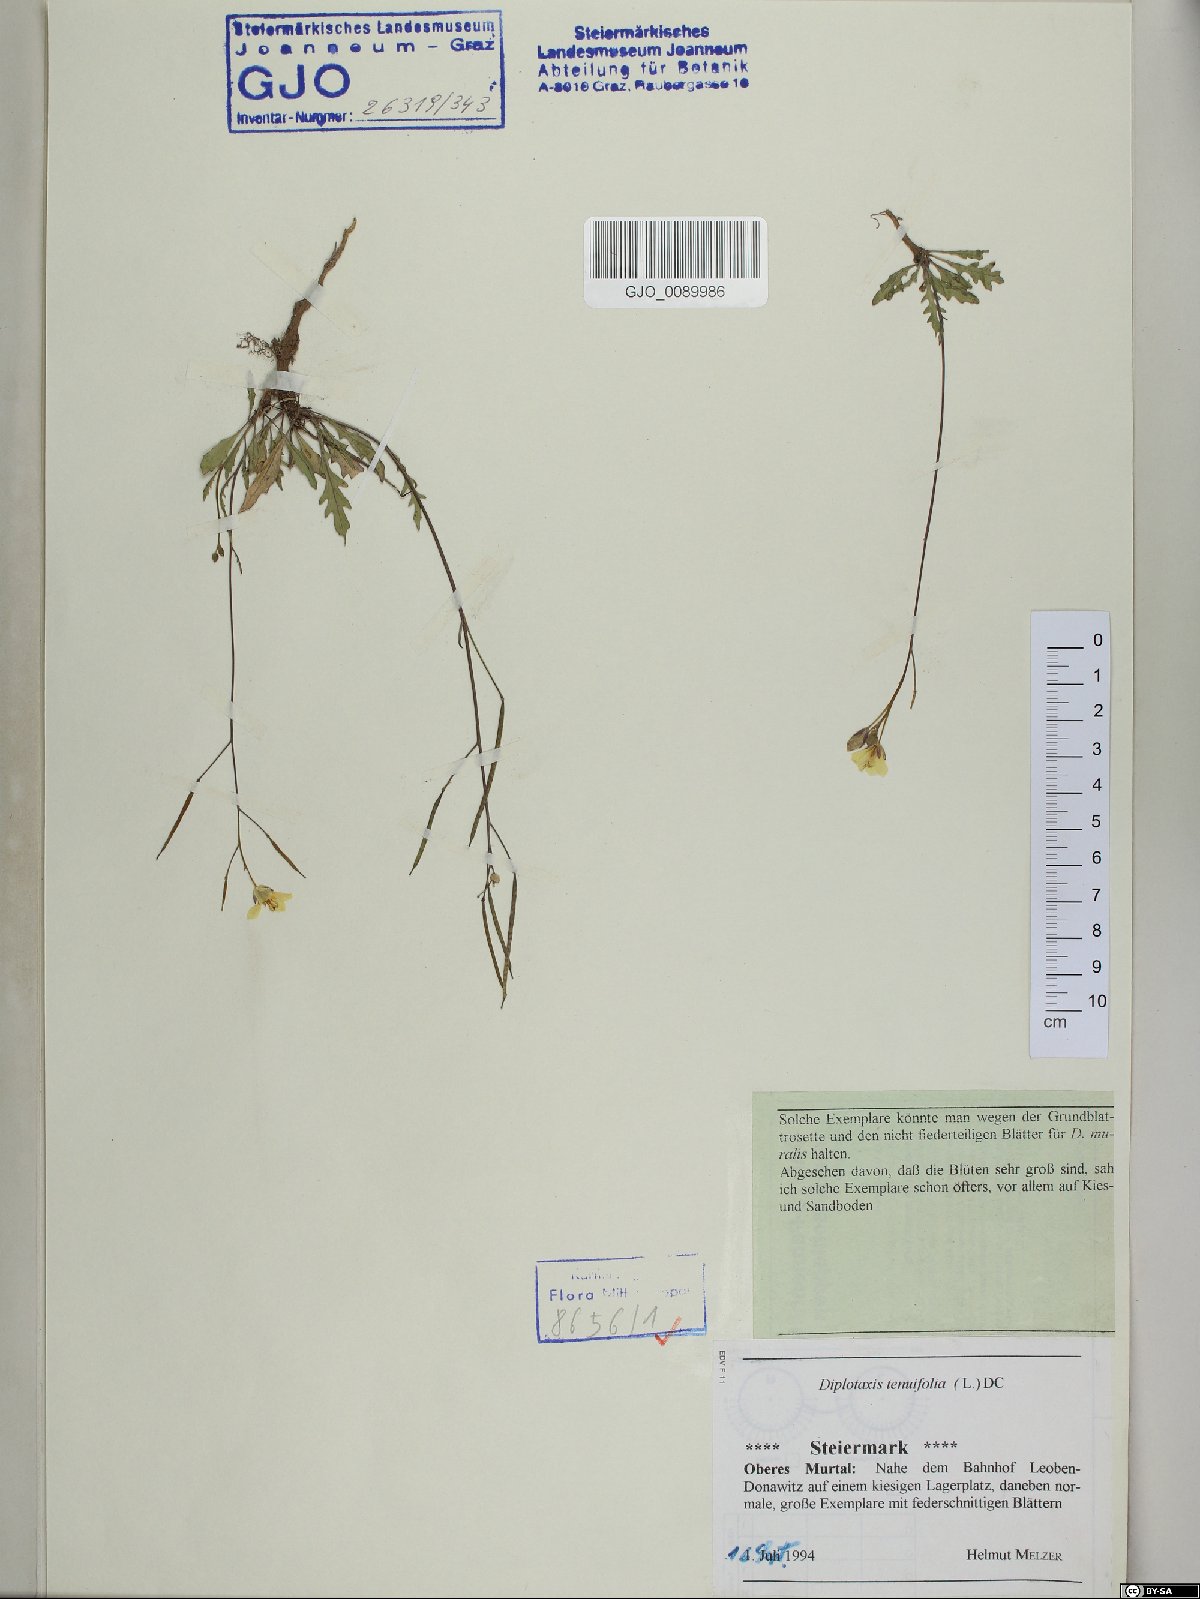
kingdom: Plantae
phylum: Tracheophyta
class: Magnoliopsida
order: Brassicales
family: Brassicaceae
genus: Diplotaxis
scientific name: Diplotaxis tenuifolia
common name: Perennial wall-rocket
